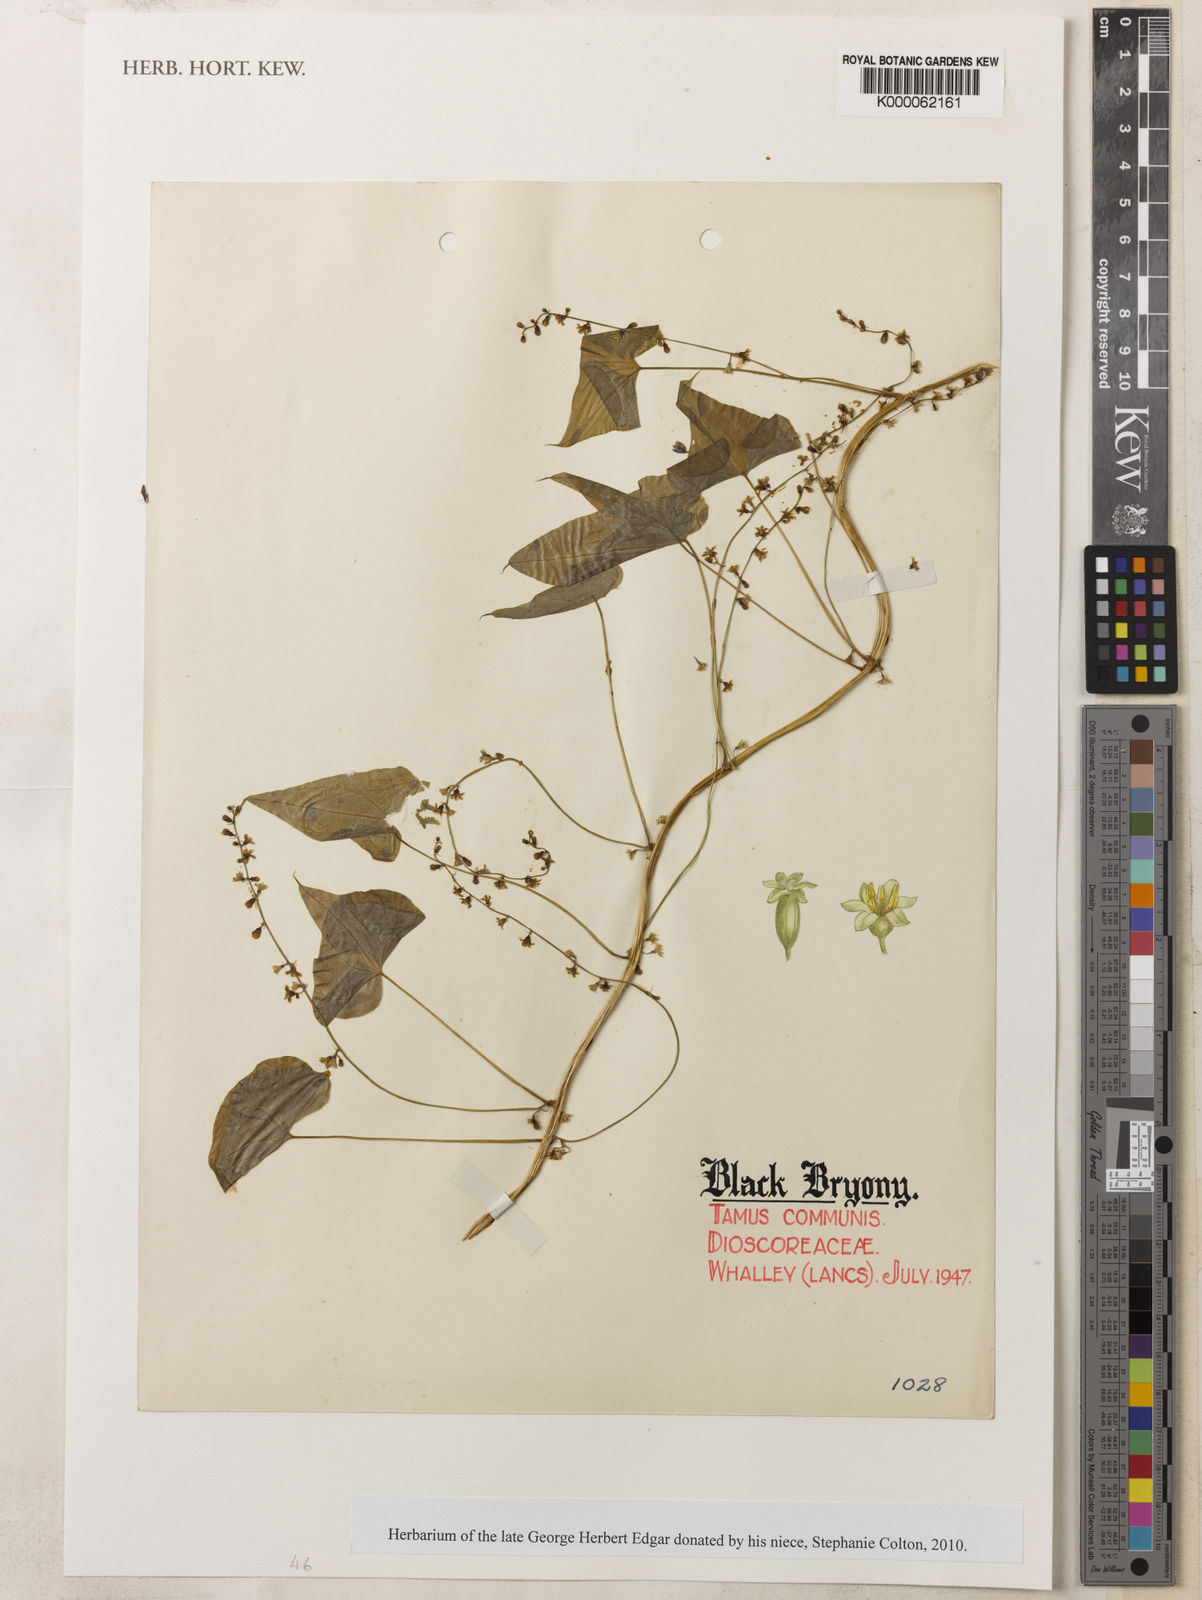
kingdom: Plantae
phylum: Tracheophyta
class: Liliopsida
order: Dioscoreales
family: Dioscoreaceae
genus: Dioscorea
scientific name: Dioscorea communis
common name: Black-bindweed
